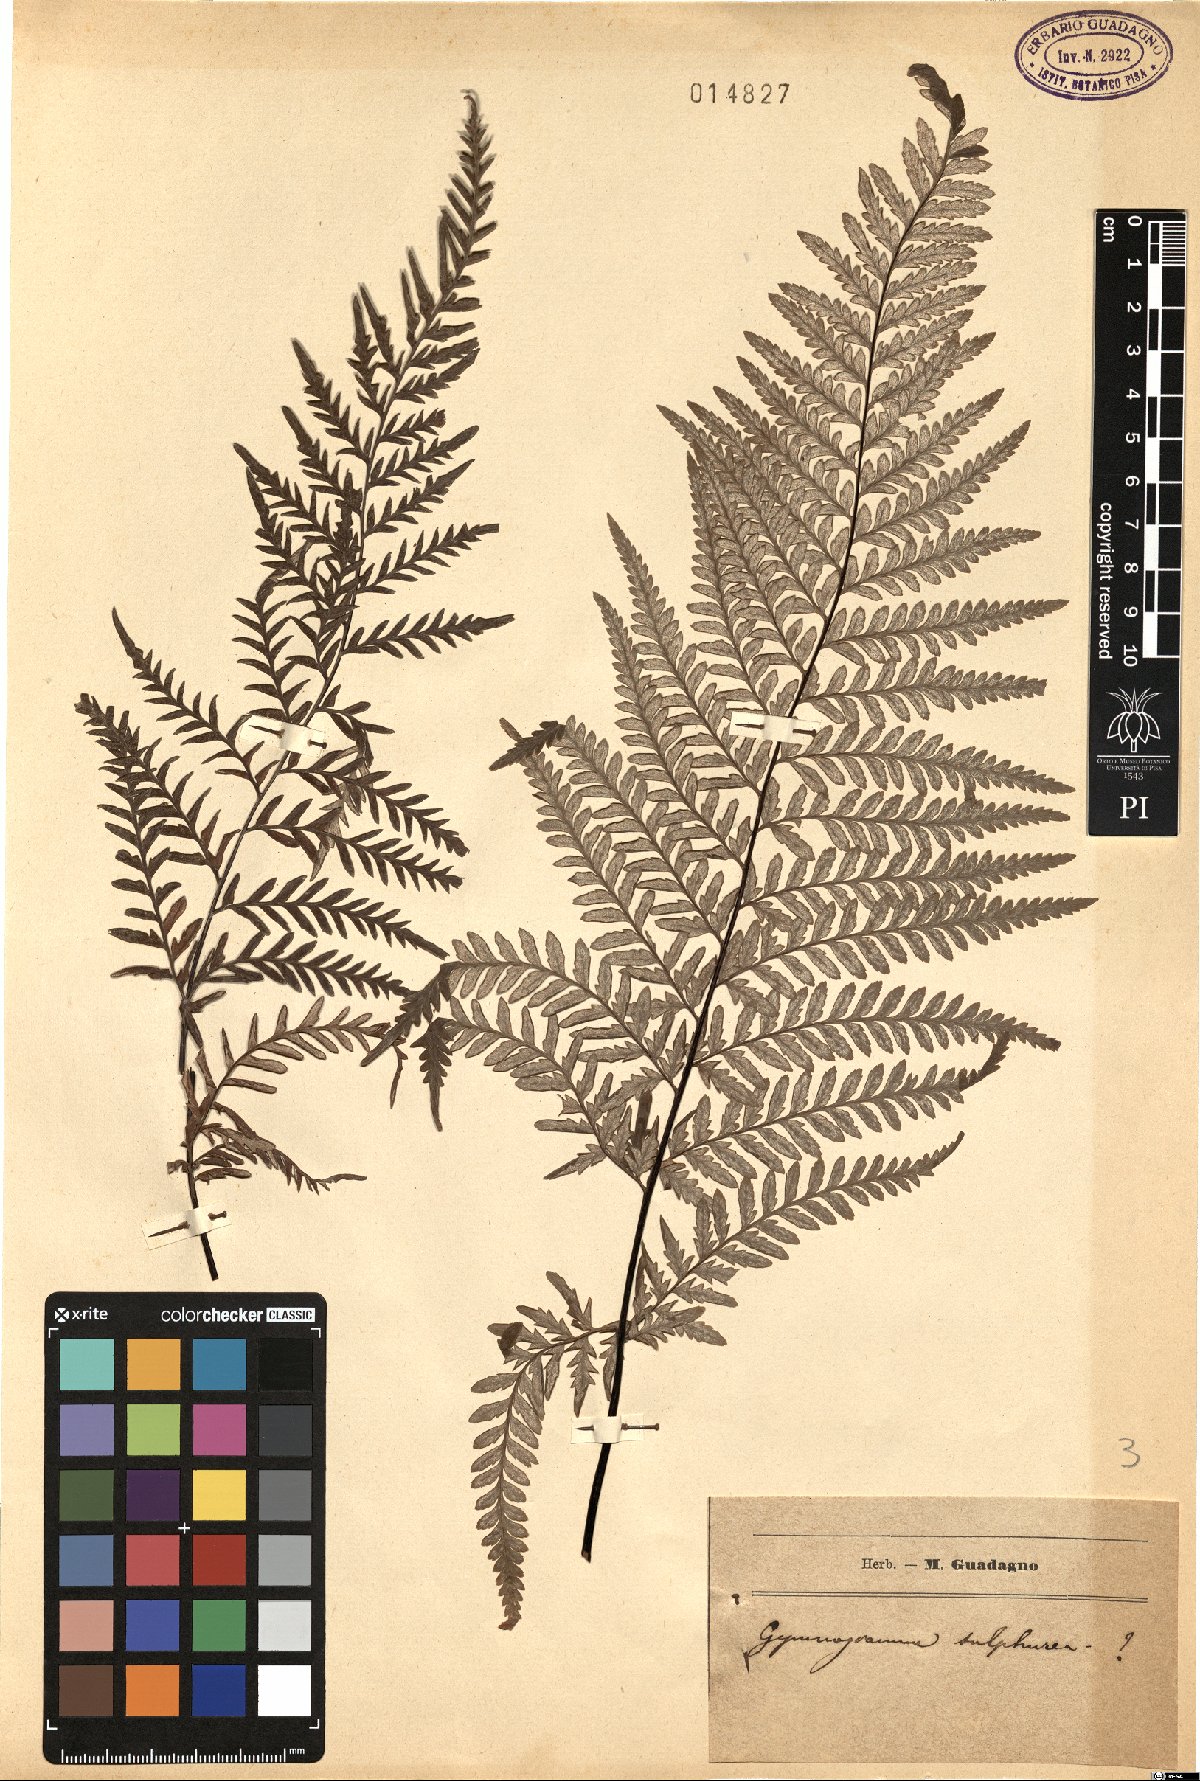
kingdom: Plantae
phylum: Tracheophyta
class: Polypodiopsida
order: Polypodiales
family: Pteridaceae
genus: Pityrogramma
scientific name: Pityrogramma sulphurea
